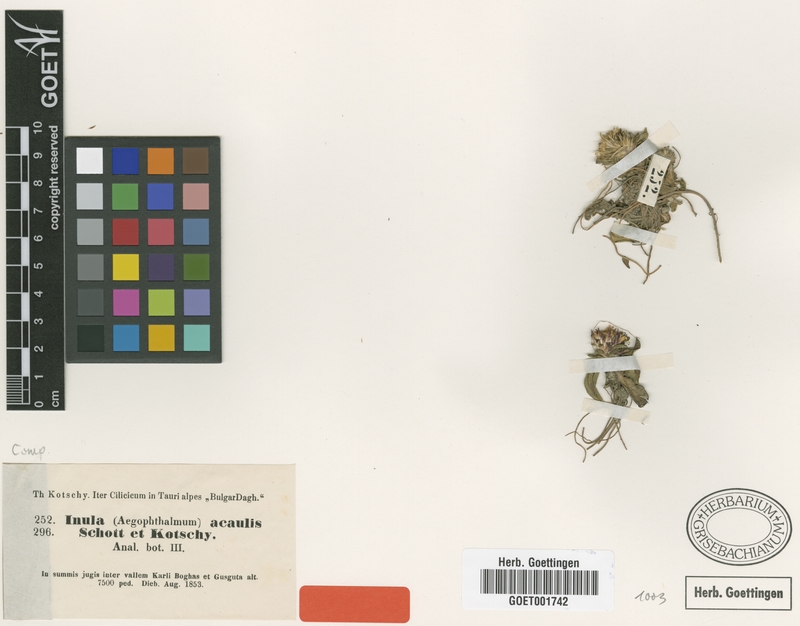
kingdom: Plantae
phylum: Tracheophyta
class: Magnoliopsida
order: Asterales
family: Asteraceae
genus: Inula
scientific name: Inula acaulis
